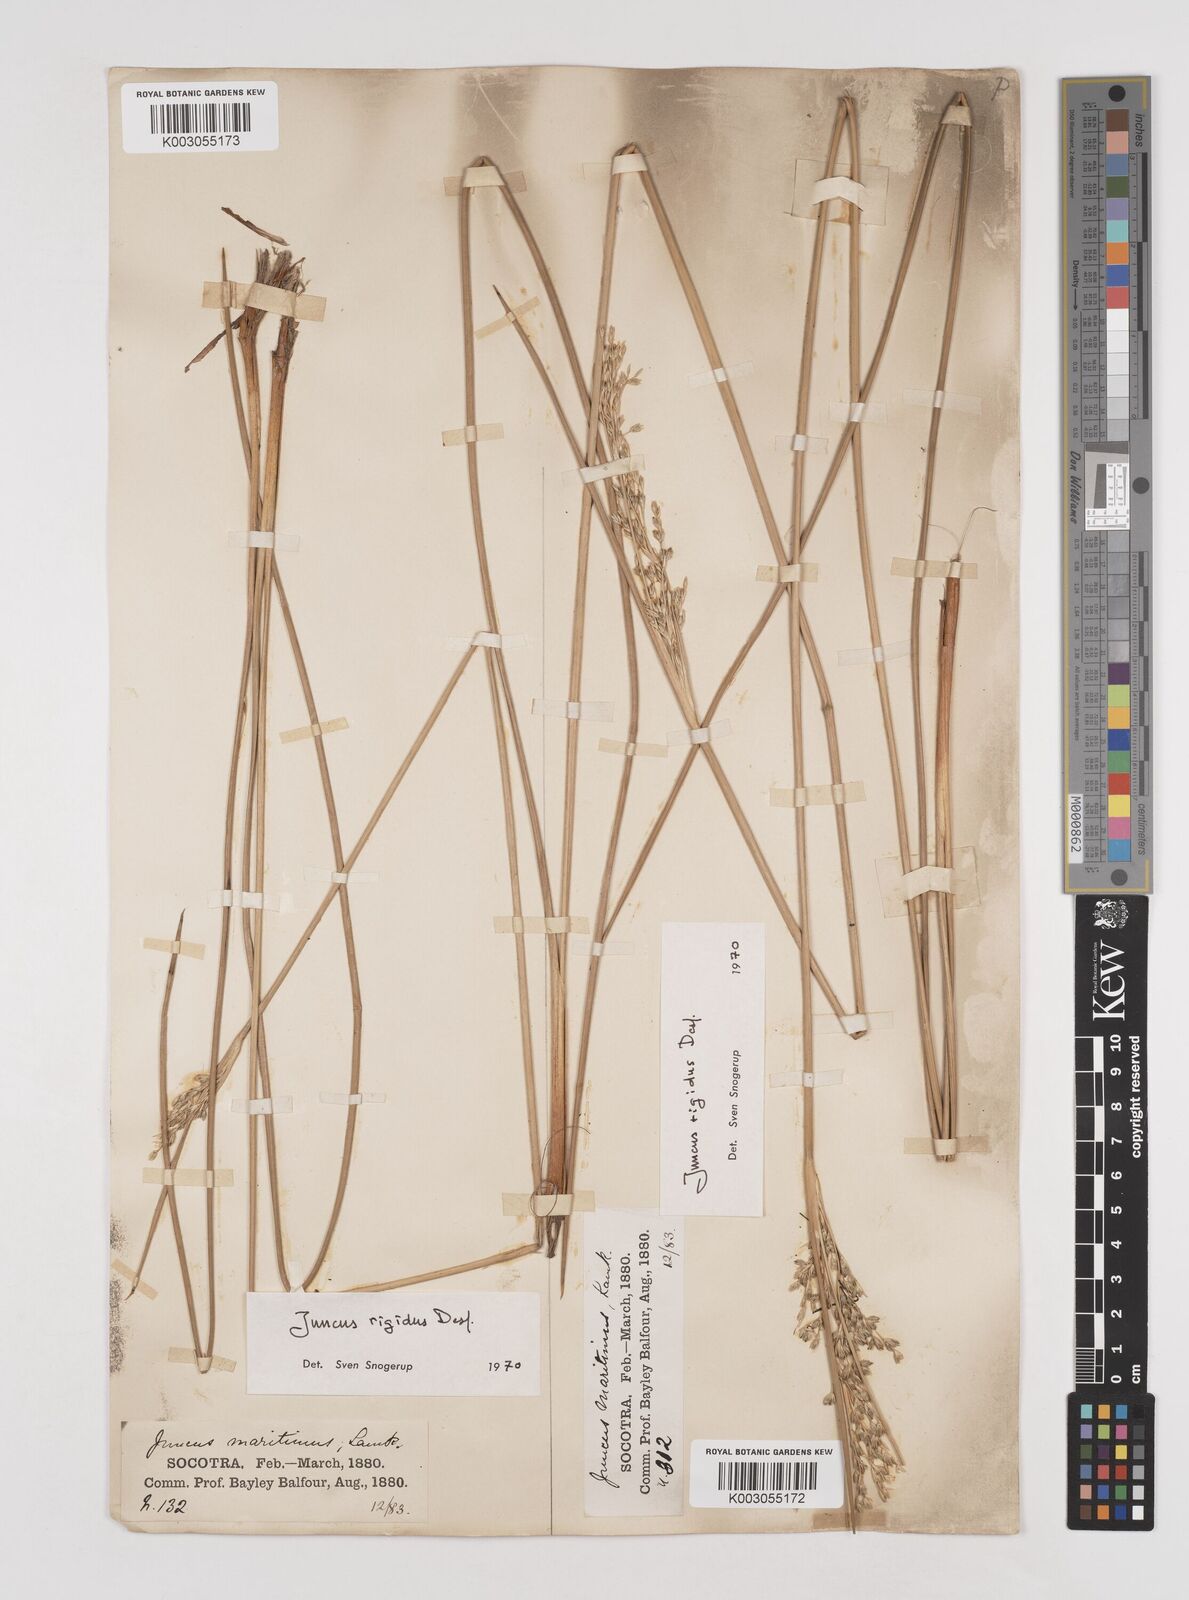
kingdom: Plantae
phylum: Tracheophyta
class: Liliopsida
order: Poales
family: Juncaceae
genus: Juncus
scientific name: Juncus rigidus
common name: Hard sea rush
